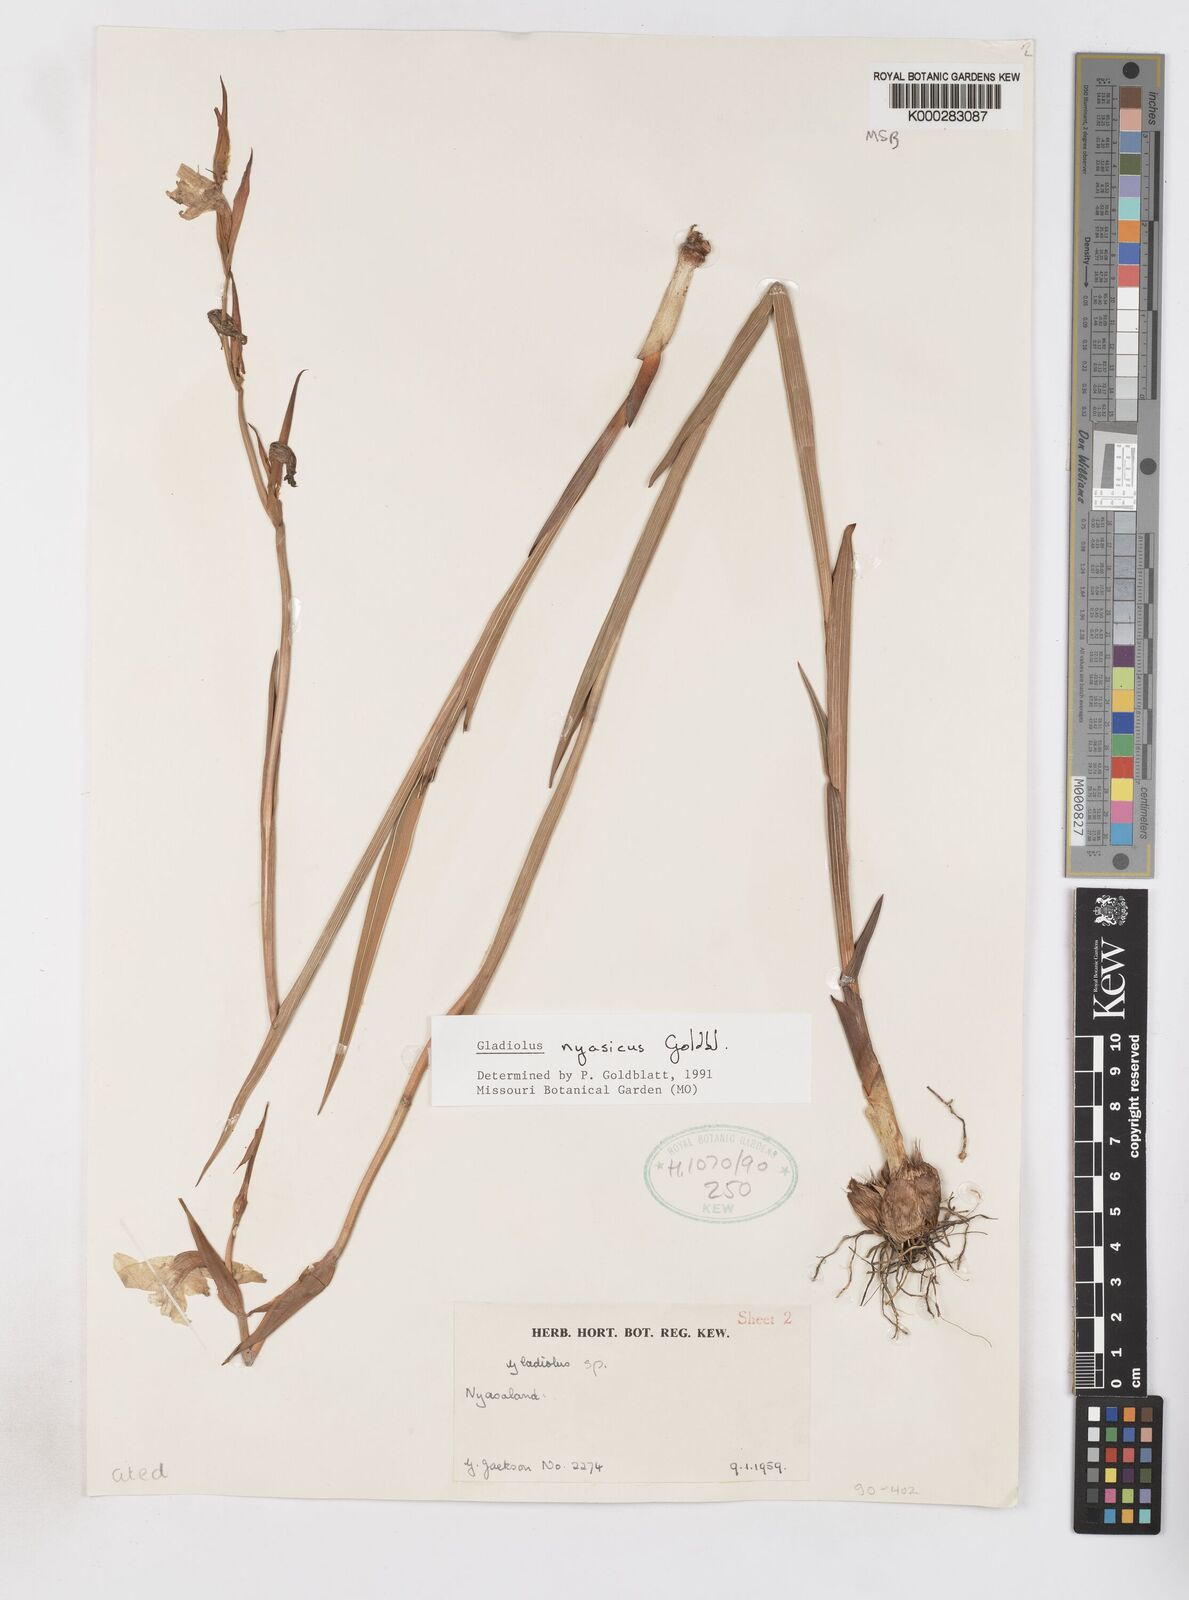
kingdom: Plantae
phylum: Tracheophyta
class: Liliopsida
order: Asparagales
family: Iridaceae
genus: Gladiolus
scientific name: Gladiolus nyasicus
